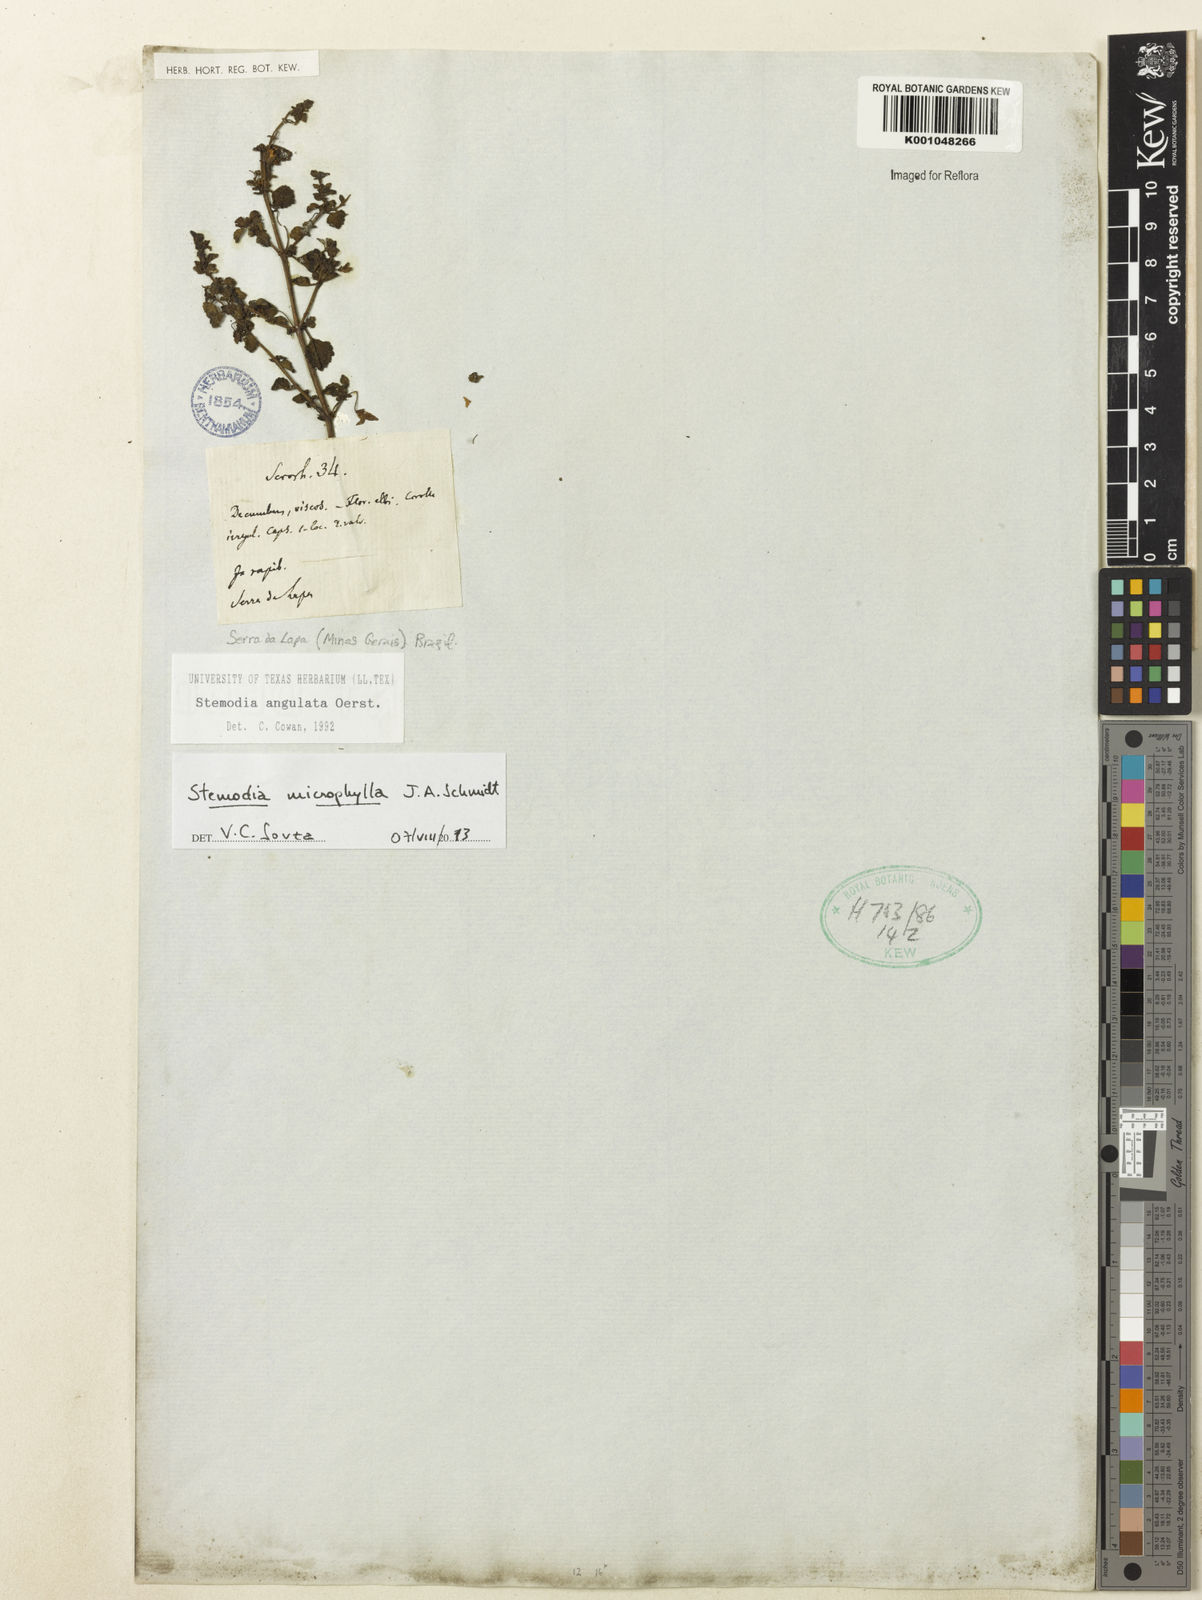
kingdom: Plantae
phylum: Tracheophyta
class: Magnoliopsida
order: Lamiales
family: Plantaginaceae
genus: Umbraria
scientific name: Umbraria microphylla
